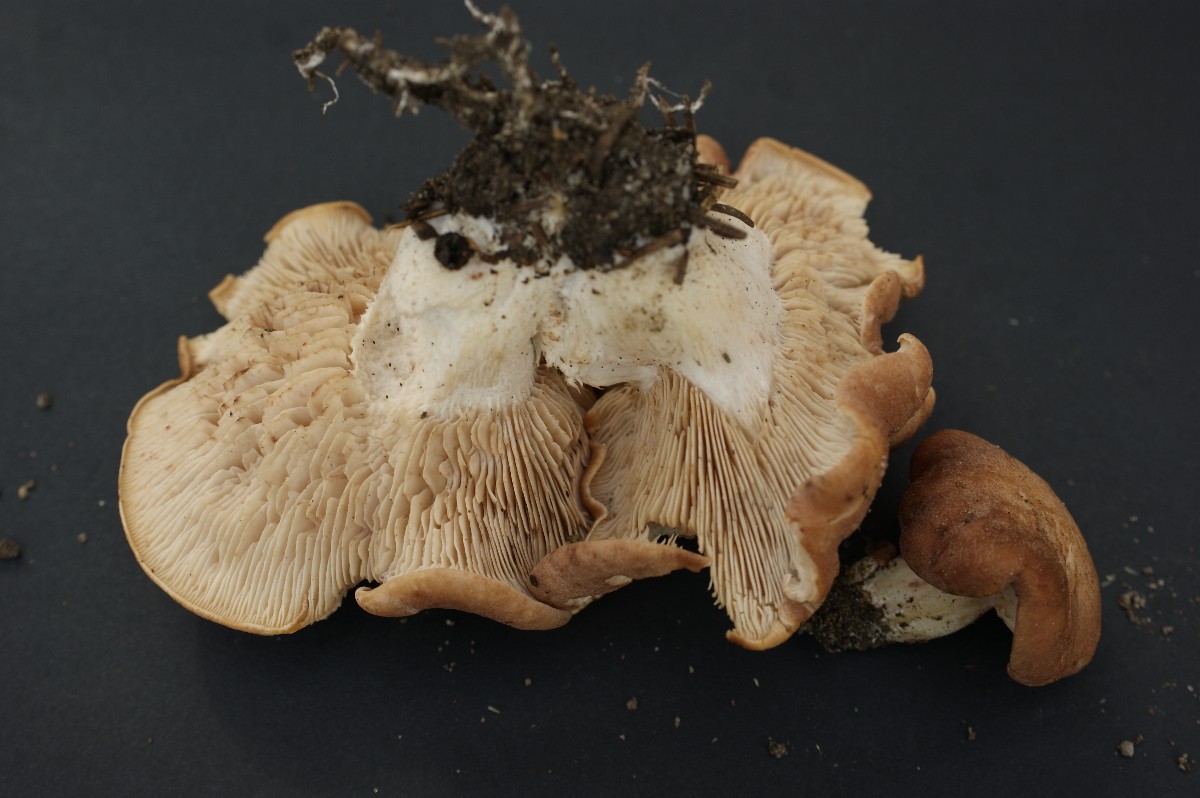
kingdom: Fungi
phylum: Basidiomycota
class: Agaricomycetes
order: Agaricales
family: Entolomataceae
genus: Clitopilus
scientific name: Clitopilus geminus
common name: kødfarvet troldhat
